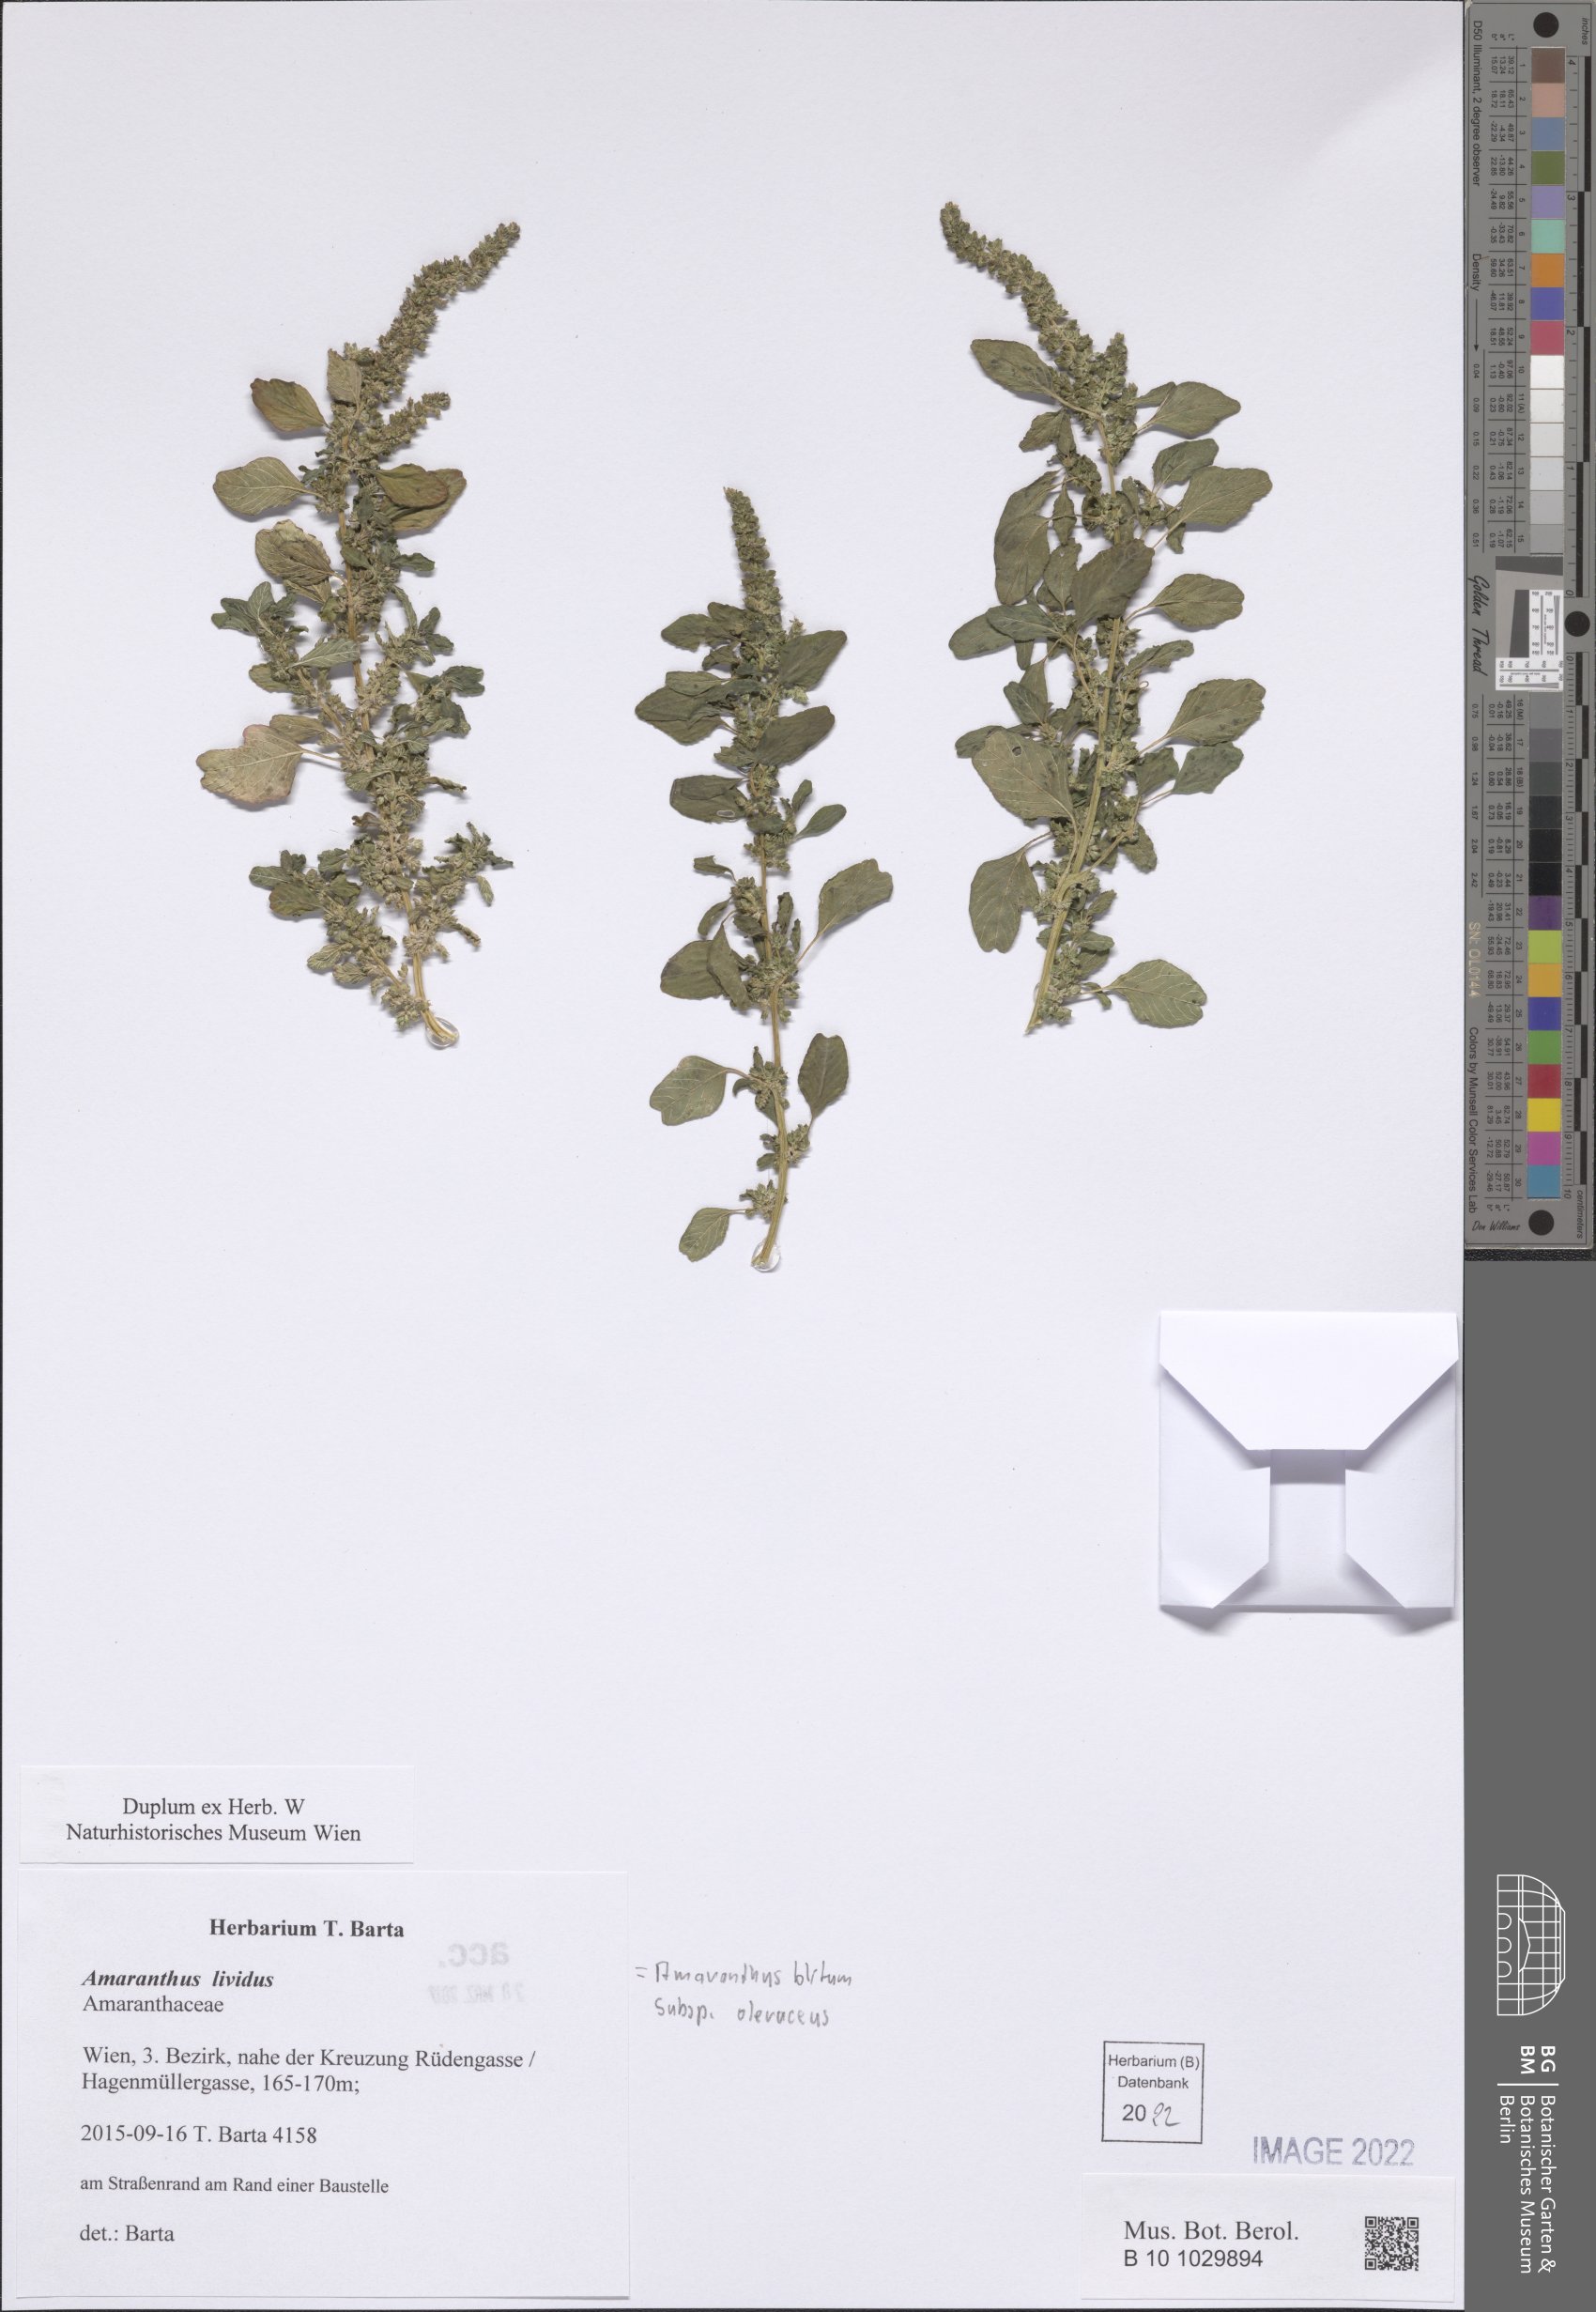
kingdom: Plantae
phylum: Tracheophyta
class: Magnoliopsida
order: Caryophyllales
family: Amaranthaceae
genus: Amaranthus
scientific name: Amaranthus blitum
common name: Purple amaranth
